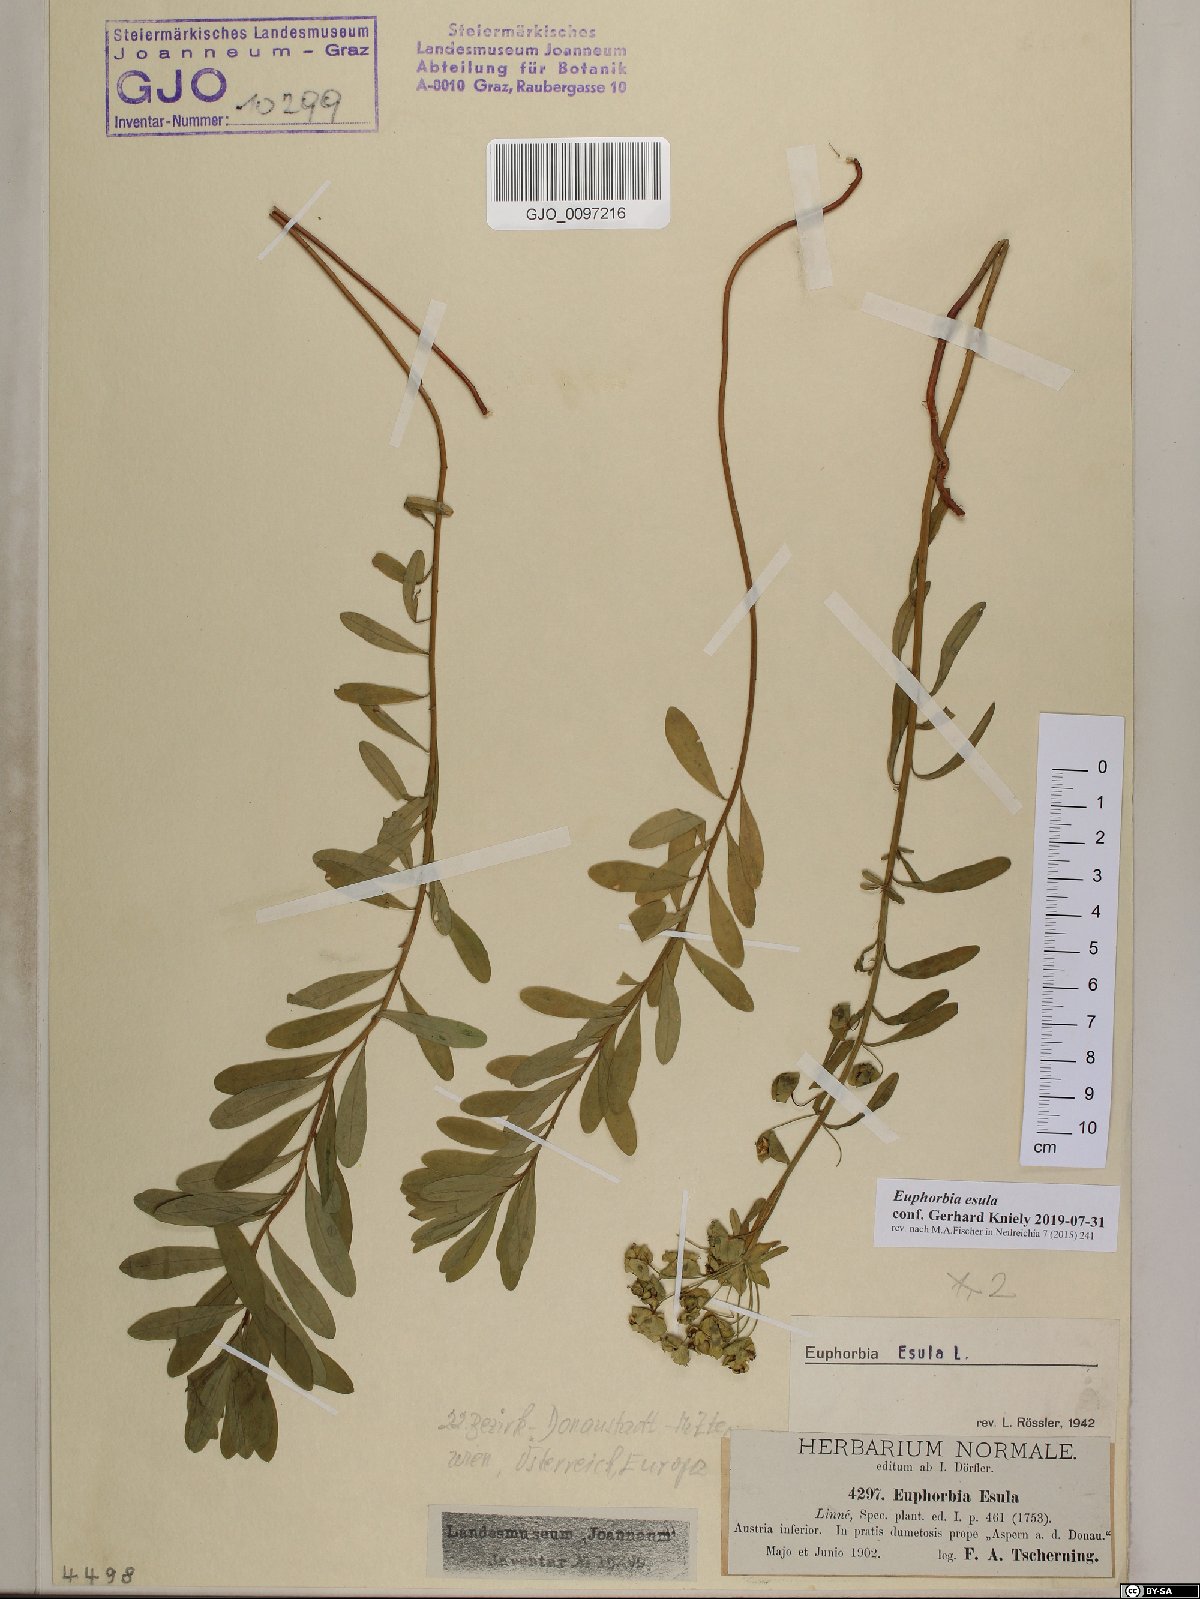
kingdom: Plantae
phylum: Tracheophyta
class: Magnoliopsida
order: Malpighiales
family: Euphorbiaceae
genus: Euphorbia
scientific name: Euphorbia esula
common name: Leafy spurge
